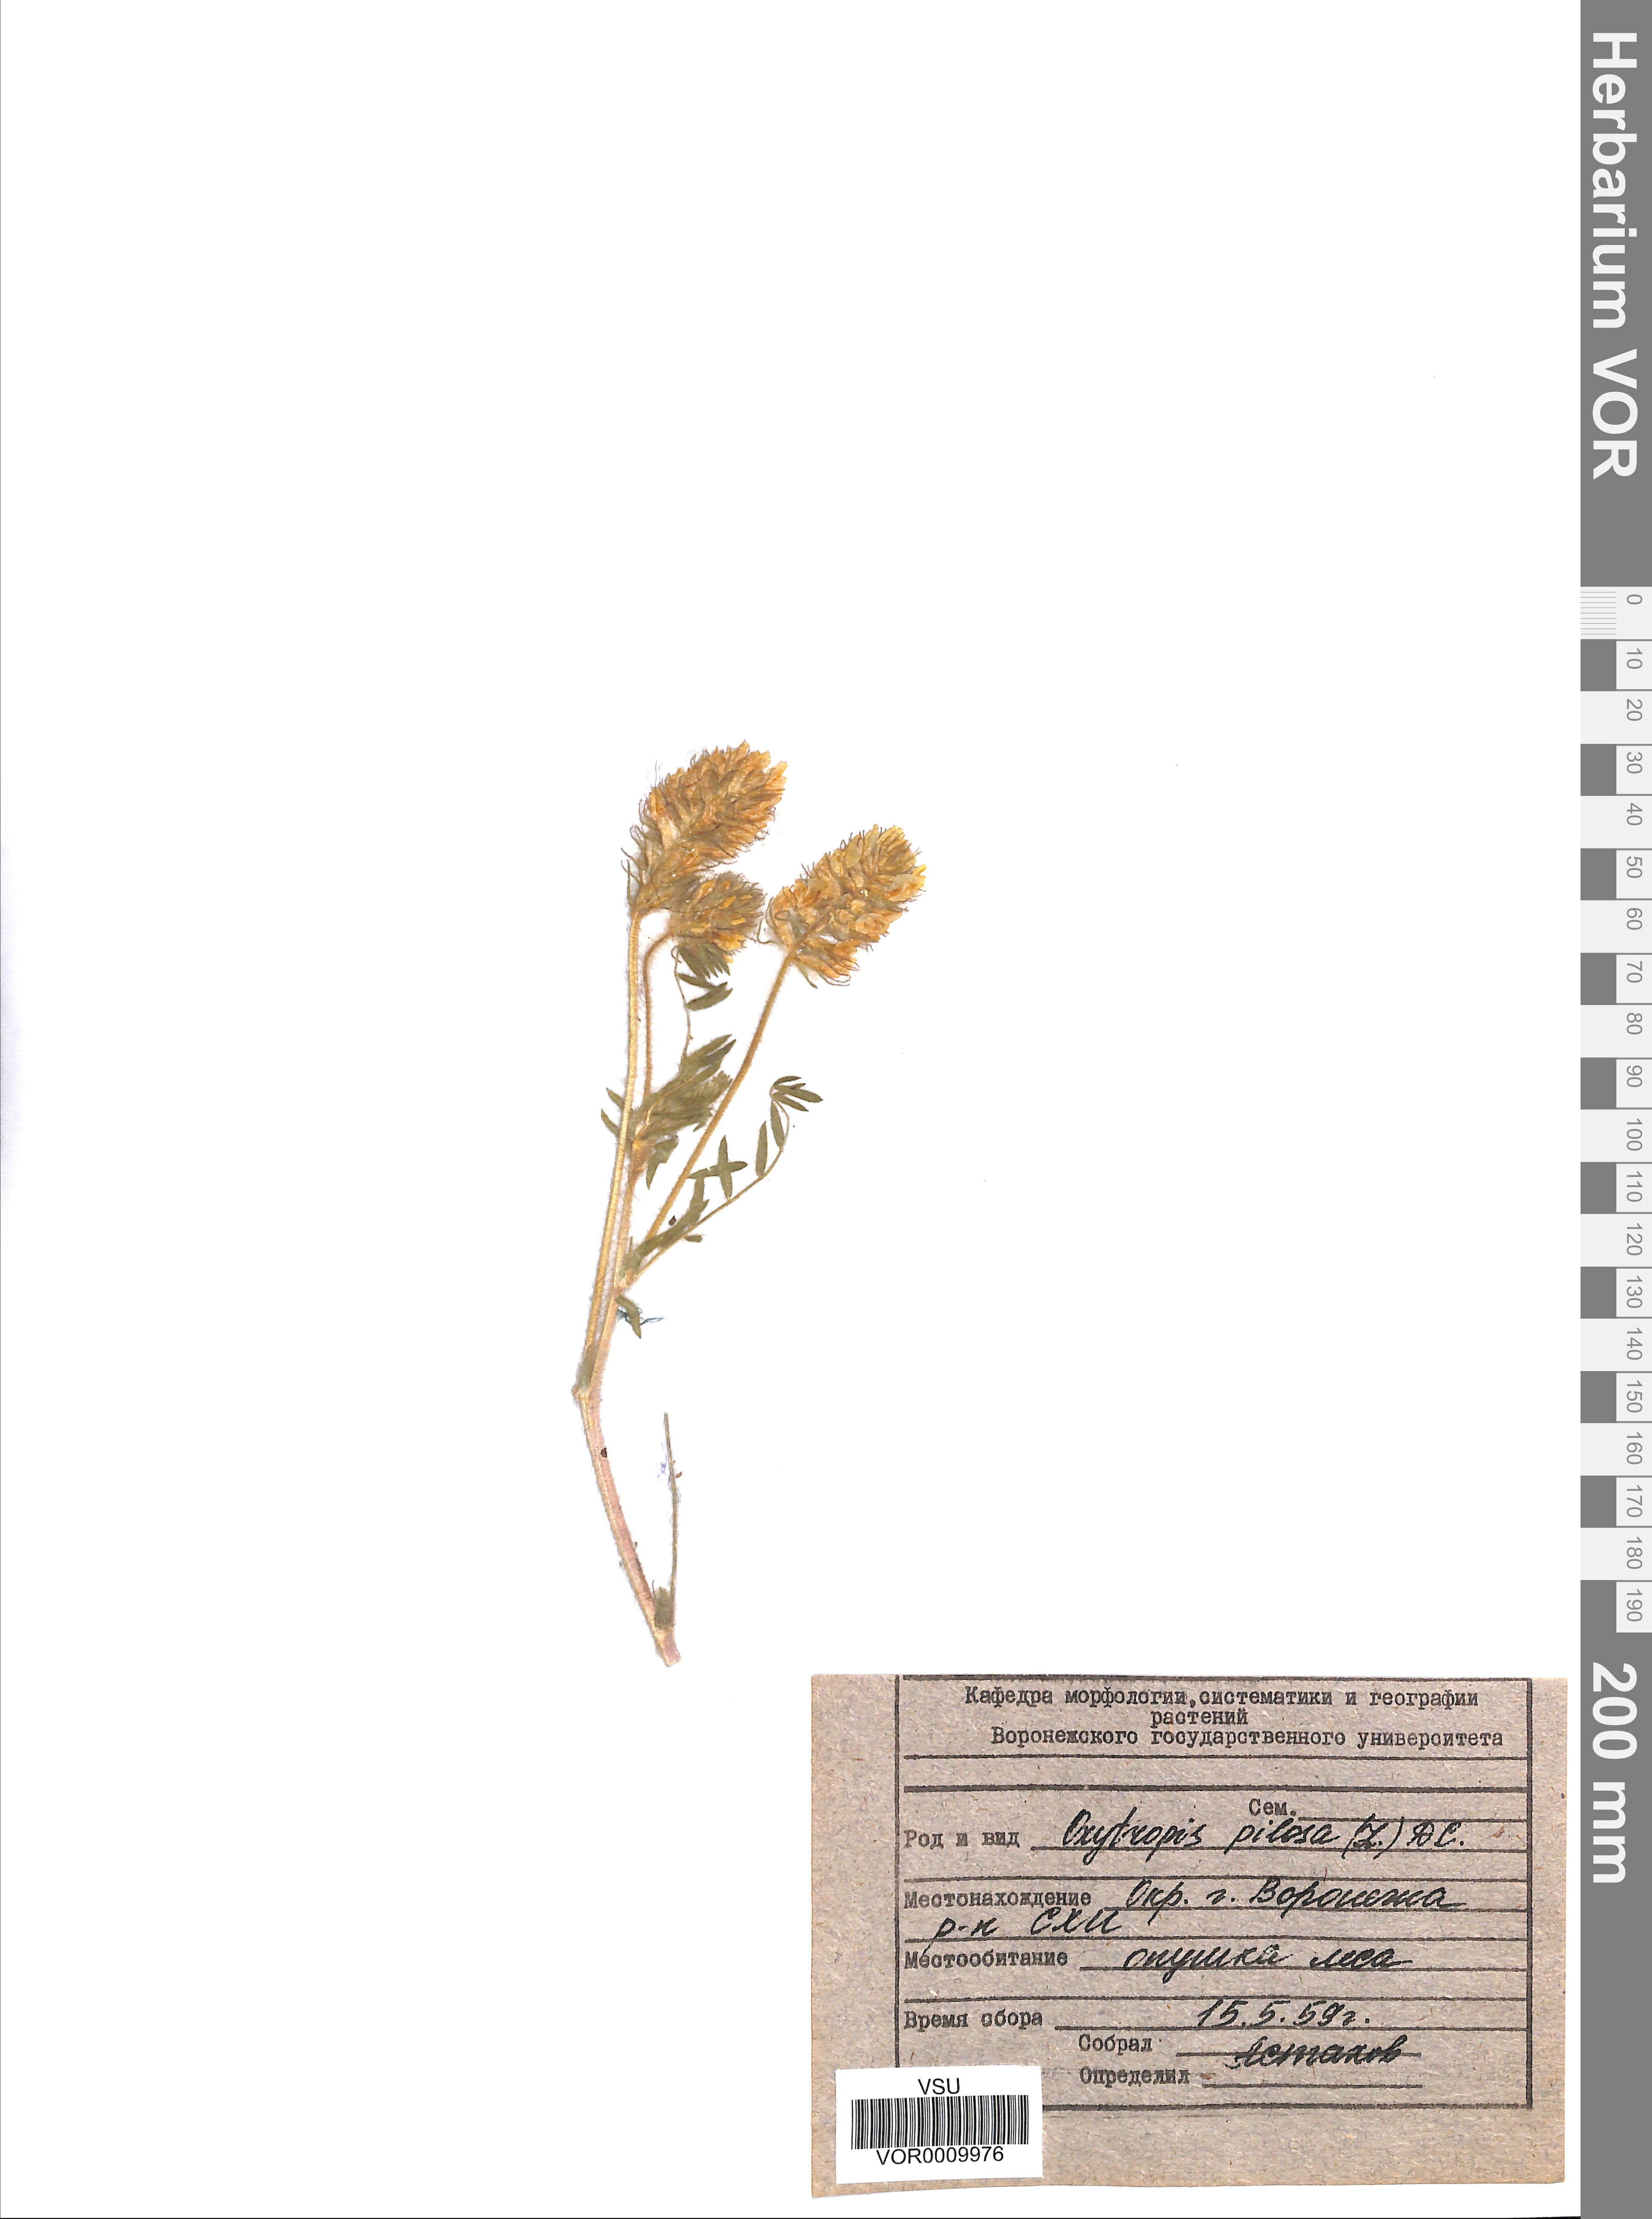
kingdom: Plantae
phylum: Tracheophyta
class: Magnoliopsida
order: Fabales
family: Fabaceae
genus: Oxytropis
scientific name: Oxytropis pilosa
